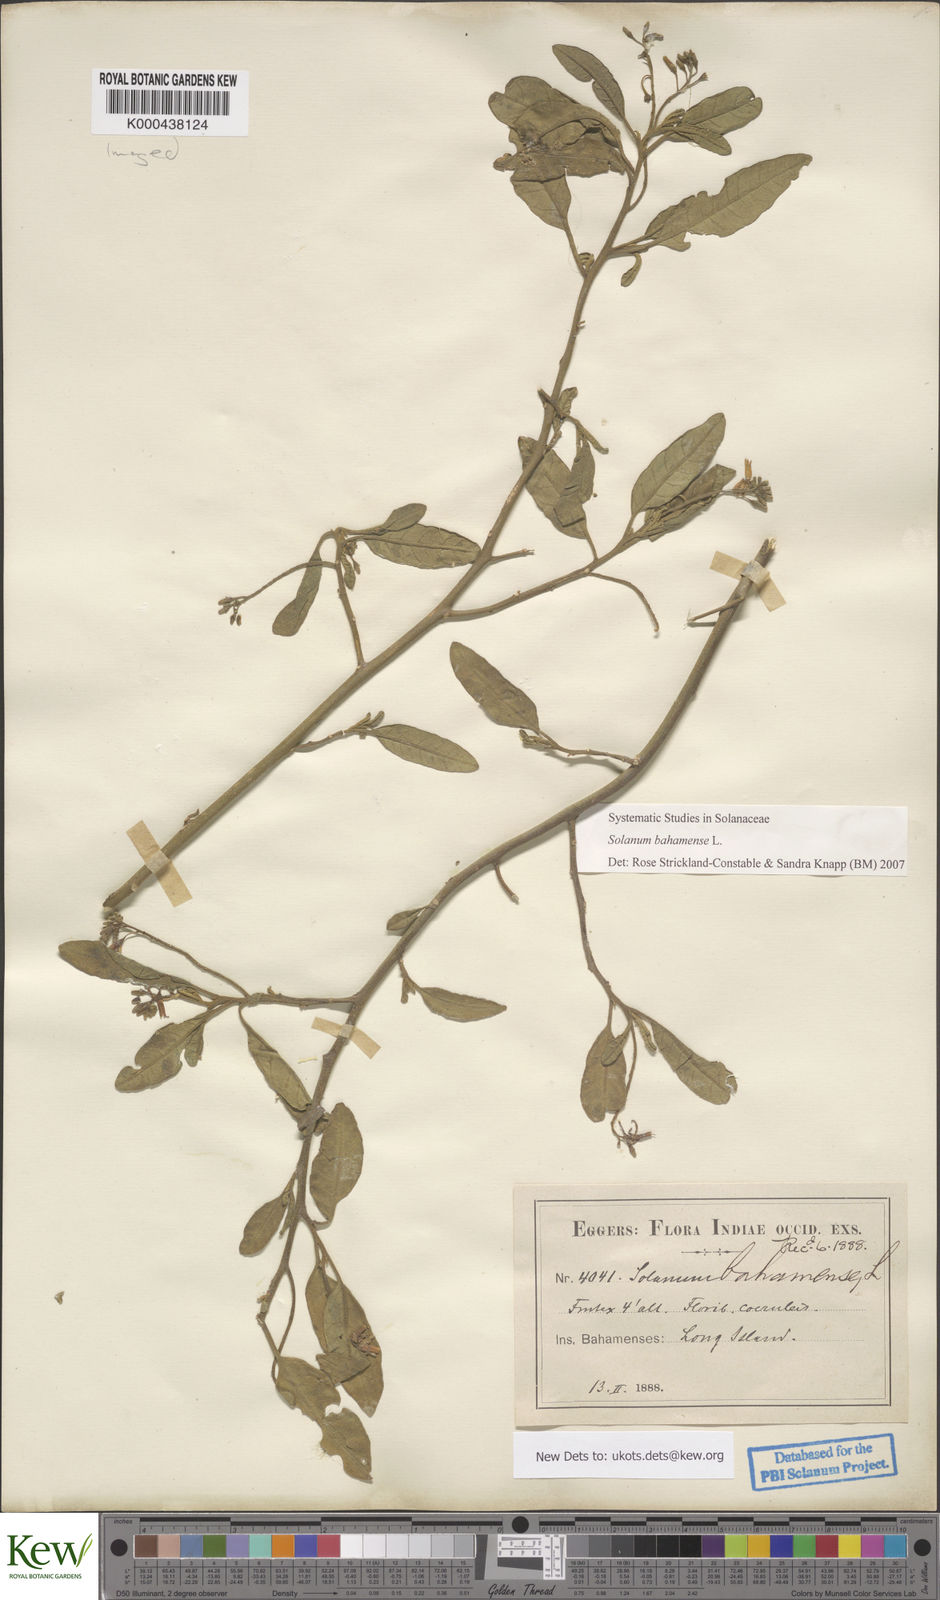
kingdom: Plantae
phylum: Tracheophyta
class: Magnoliopsida
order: Solanales
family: Solanaceae
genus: Solanum
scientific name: Solanum bahamense
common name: Canker-berry
